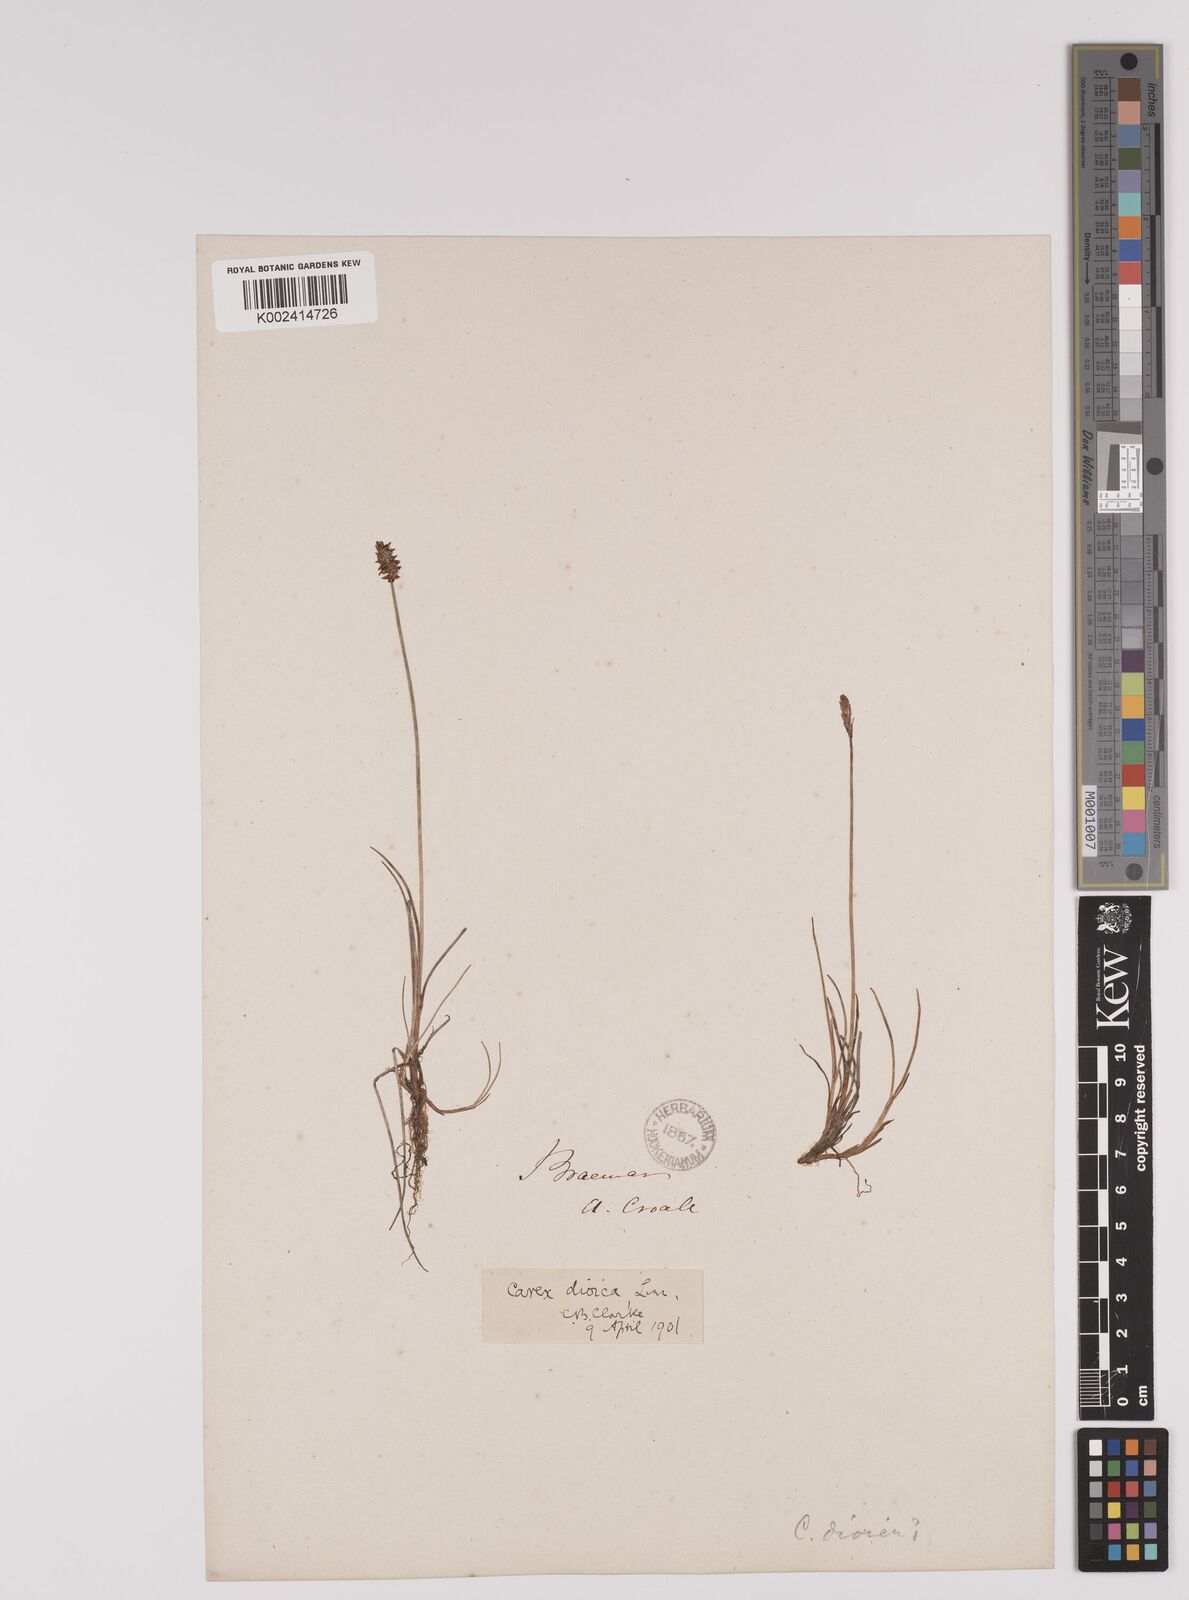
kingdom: Plantae
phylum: Tracheophyta
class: Liliopsida
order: Poales
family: Cyperaceae
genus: Carex
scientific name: Carex dioica
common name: Dioecious sedge
